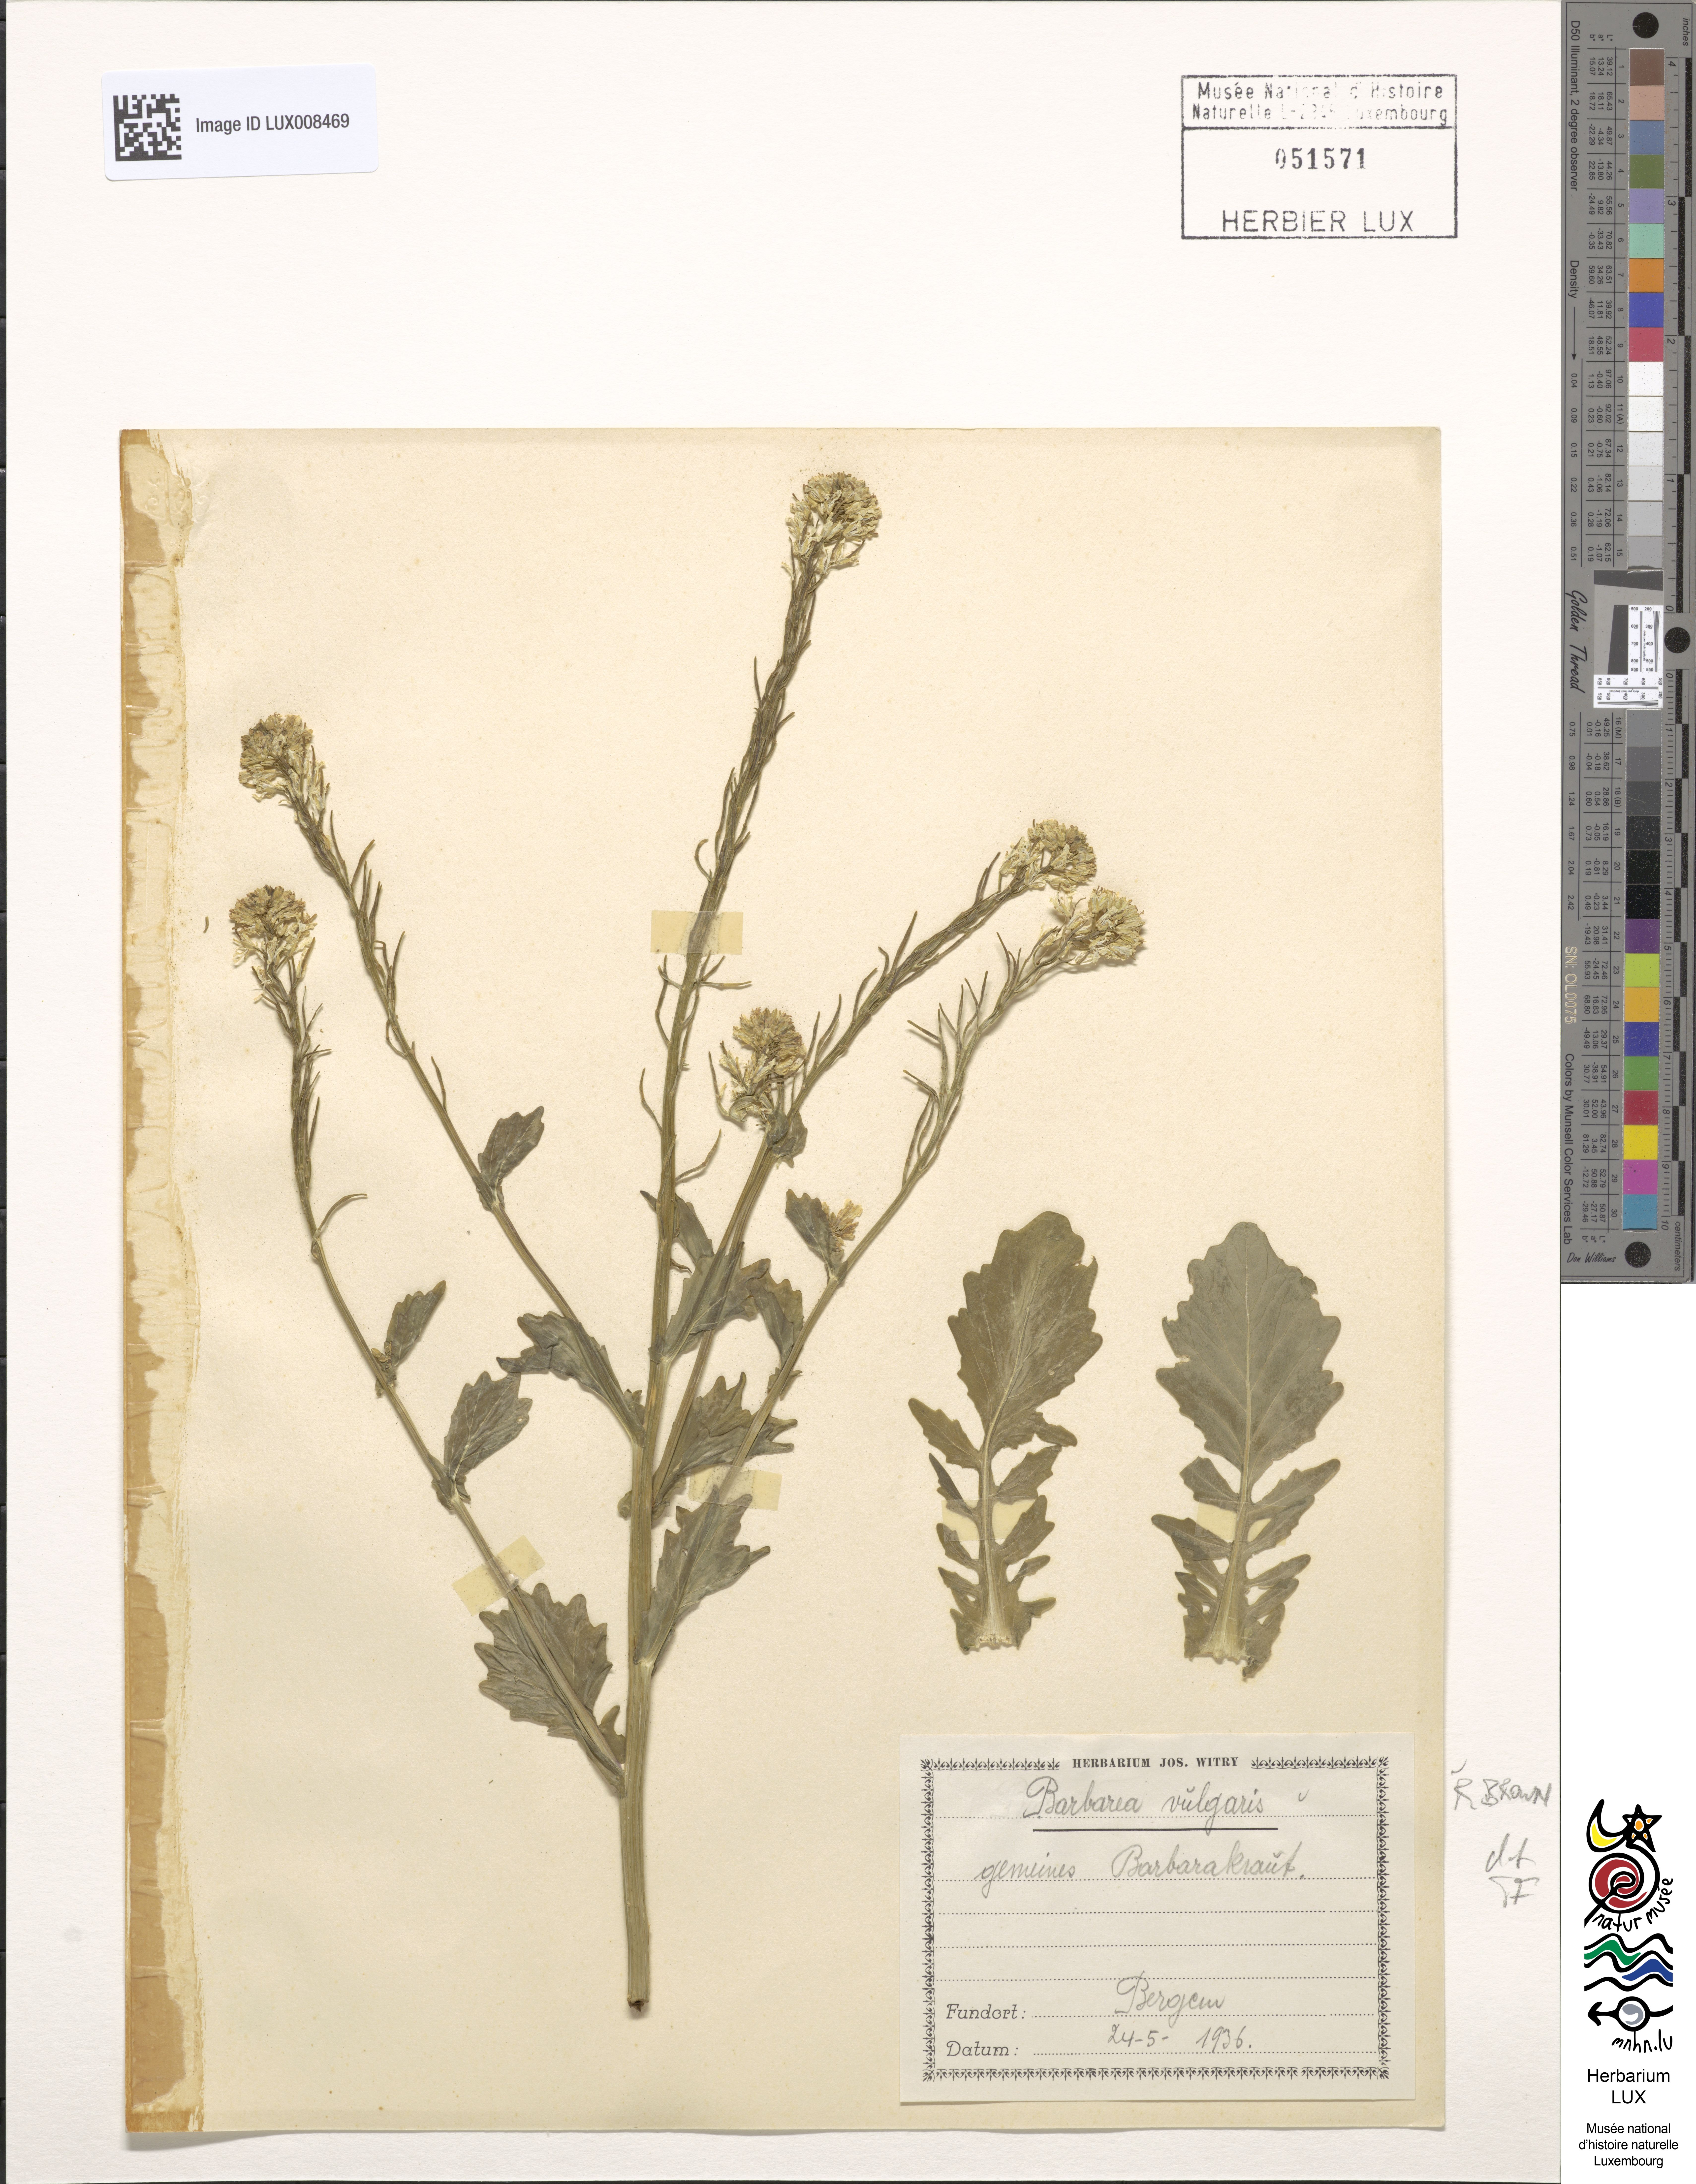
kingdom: Plantae
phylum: Tracheophyta
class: Magnoliopsida
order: Brassicales
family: Brassicaceae
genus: Barbarea
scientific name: Barbarea vulgaris
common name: Cressy-greens
